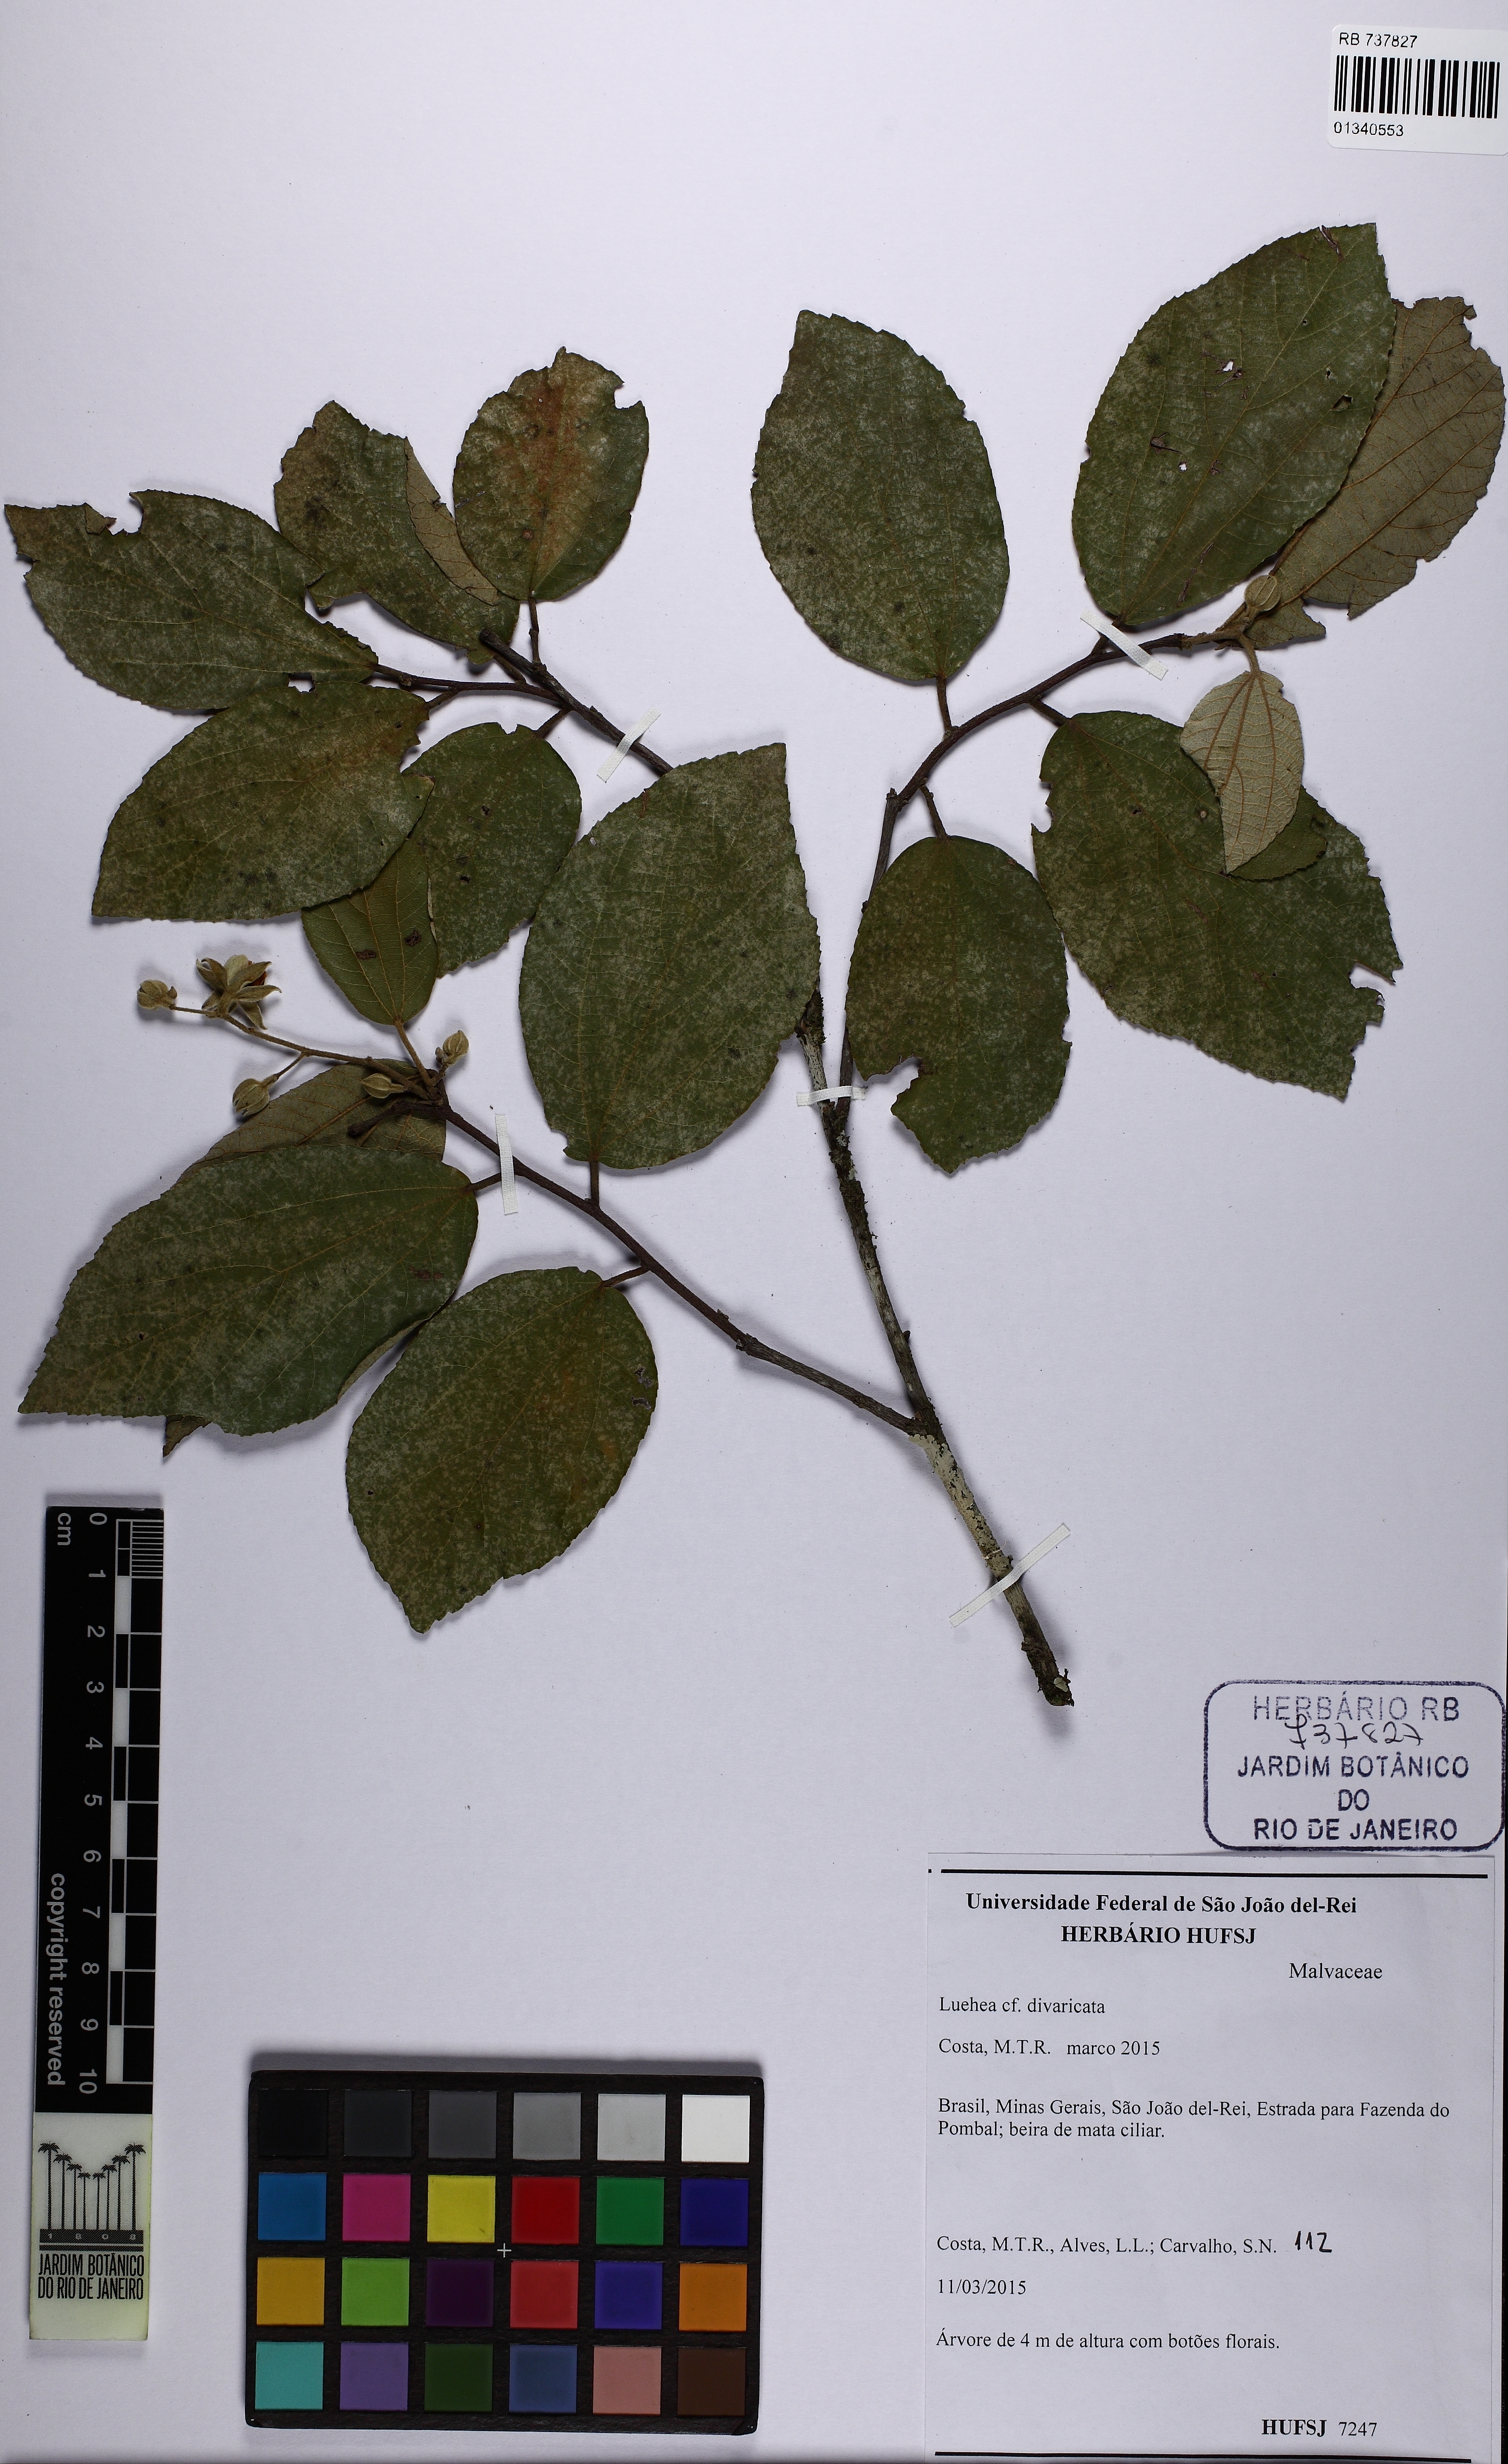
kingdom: Plantae
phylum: Tracheophyta
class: Magnoliopsida
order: Malvales
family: Malvaceae
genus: Luehea
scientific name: Luehea divaricata
